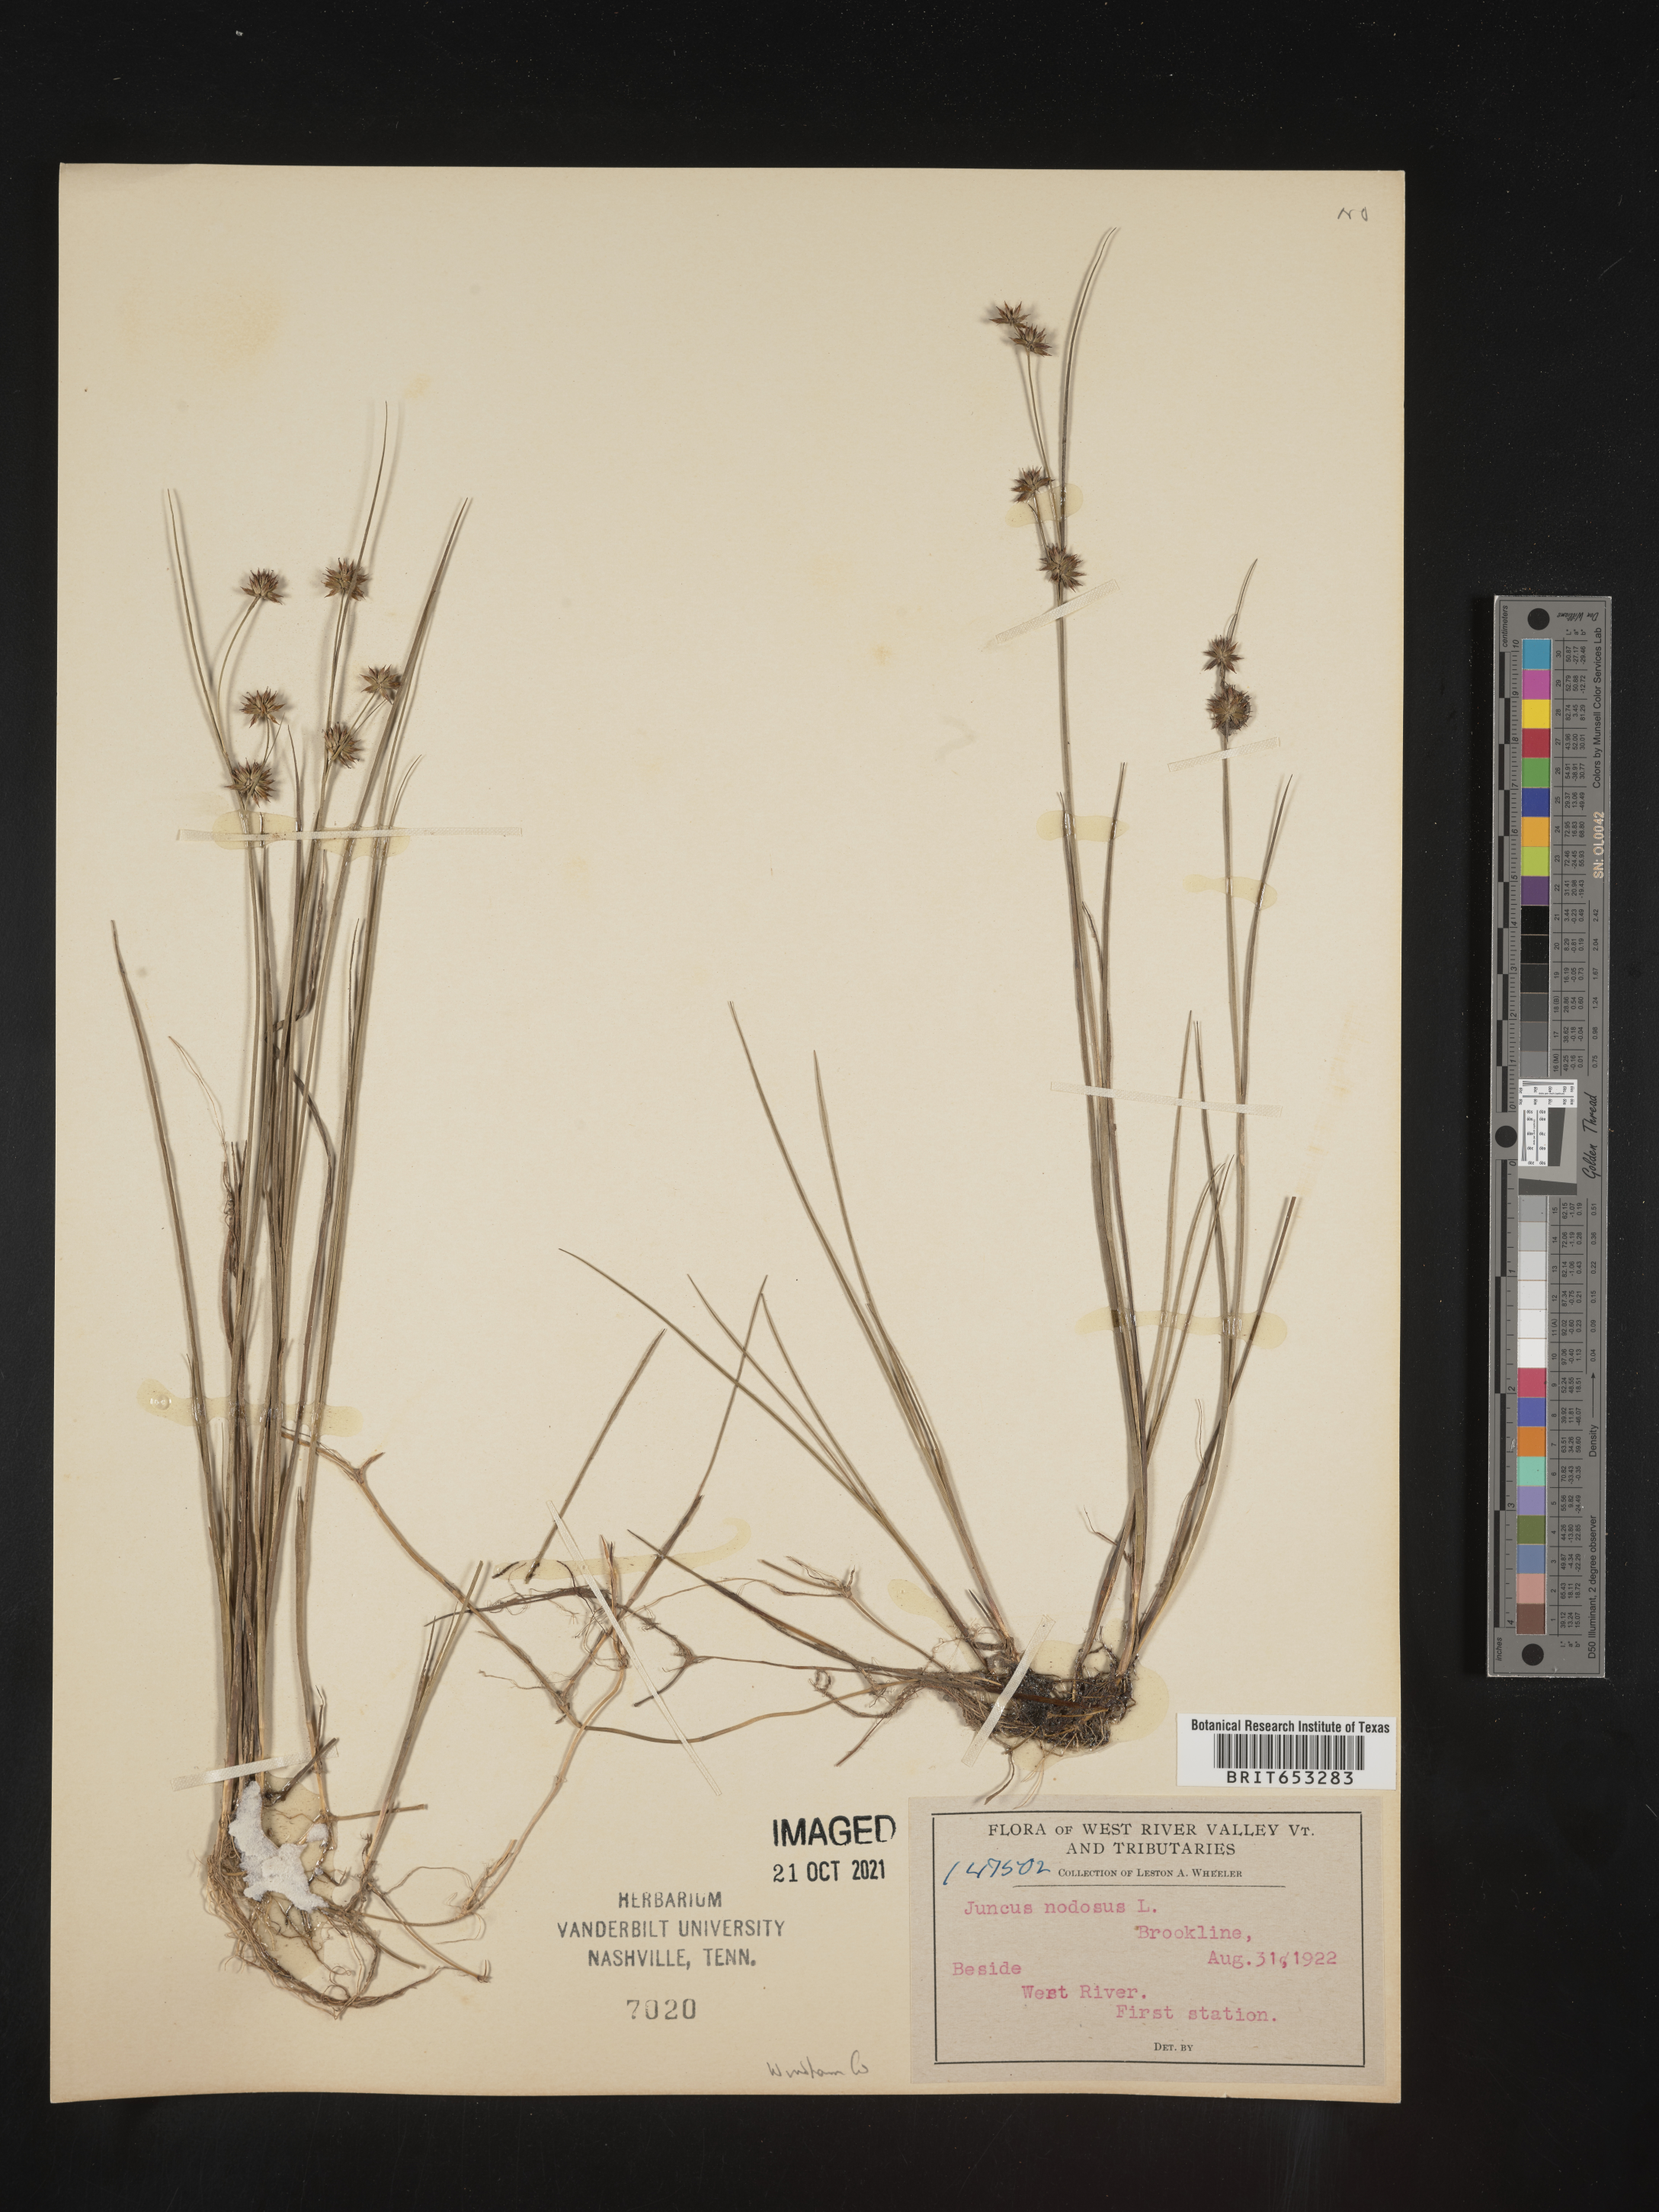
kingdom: Plantae
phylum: Tracheophyta
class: Liliopsida
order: Poales
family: Juncaceae
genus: Juncus
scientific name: Juncus nodosus
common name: Knotted rush
